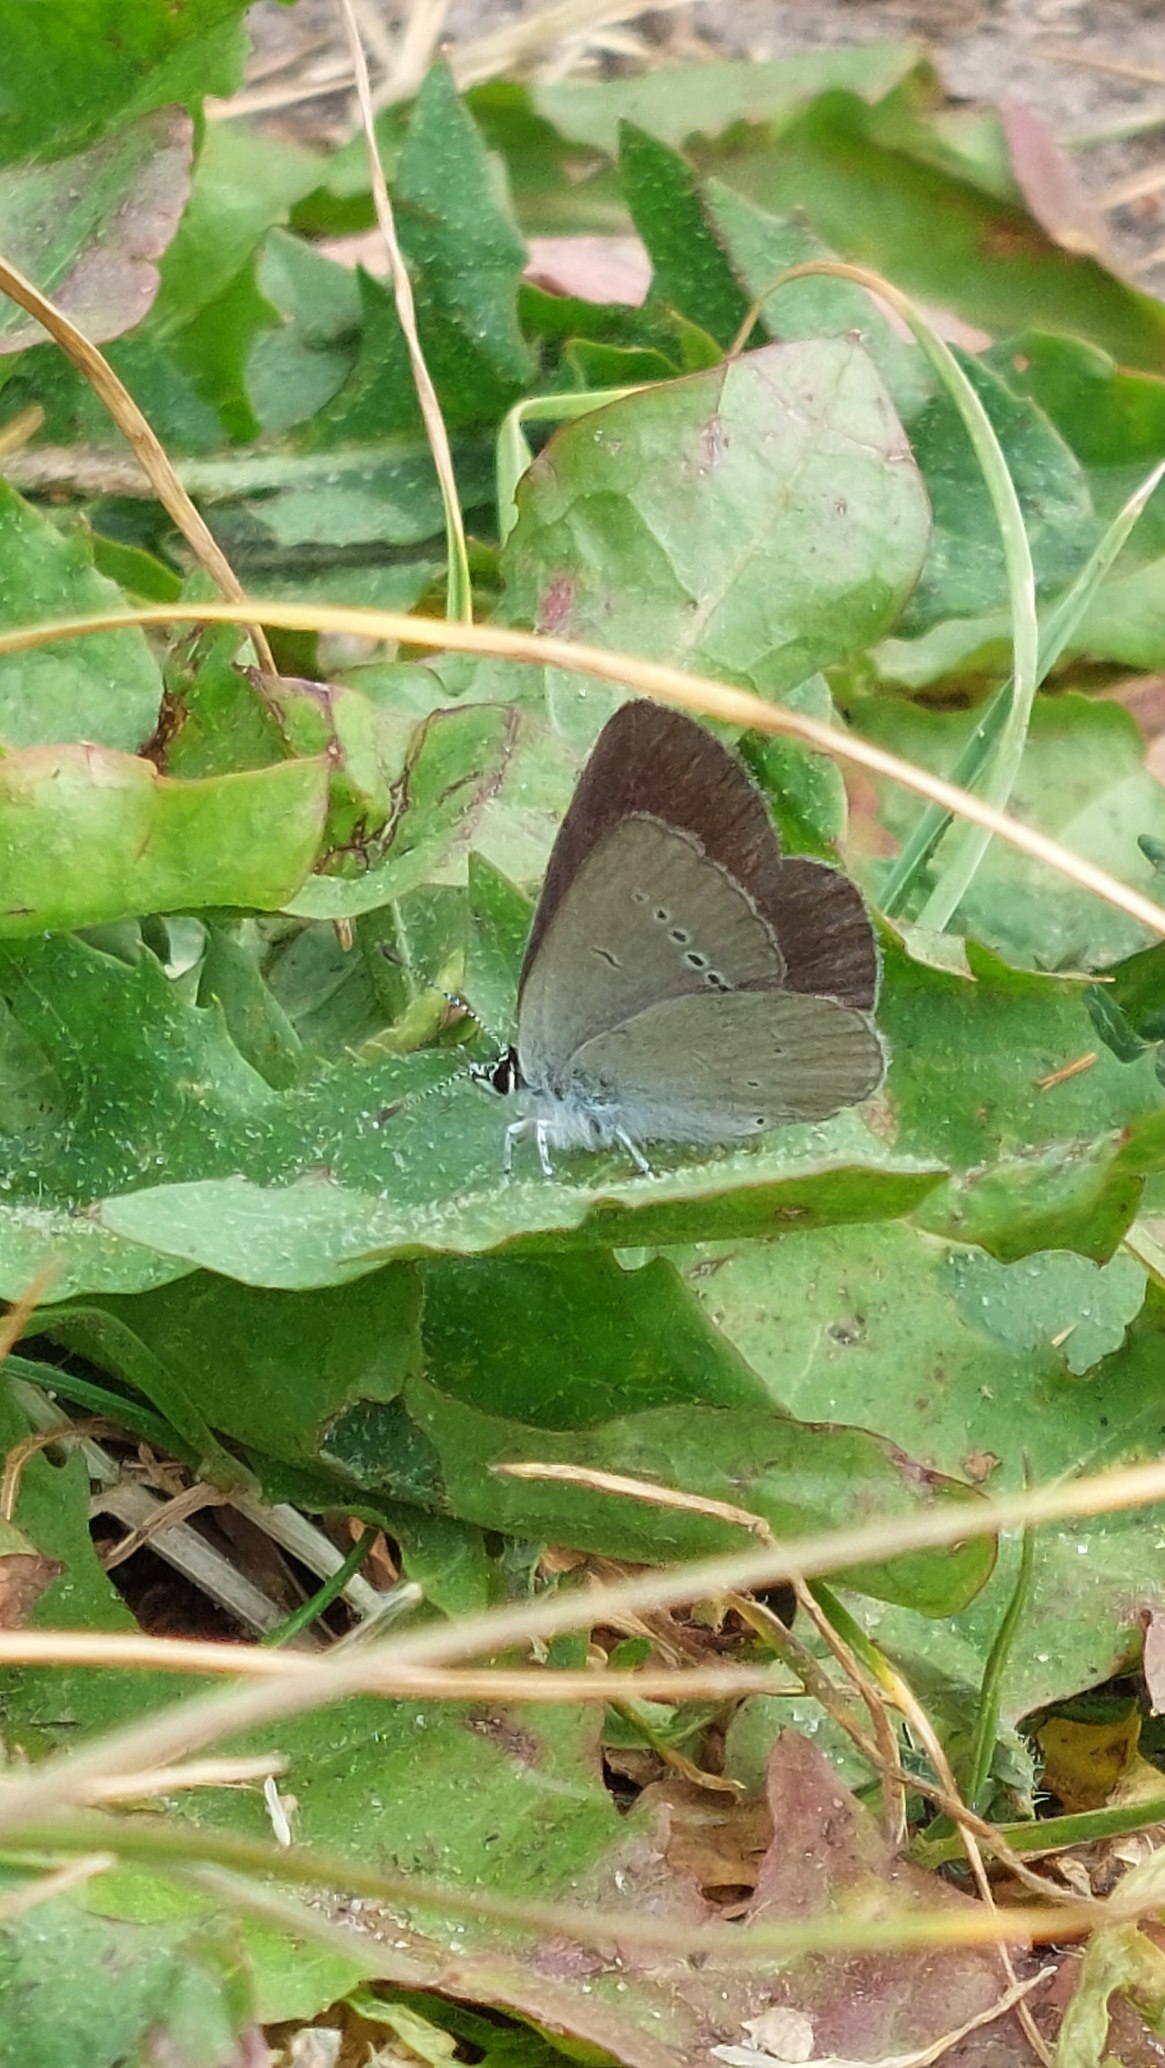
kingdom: Animalia
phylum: Arthropoda
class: Insecta
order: Lepidoptera
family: Lycaenidae
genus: Cupido
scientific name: Cupido minimus
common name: Dværgblåfugl
